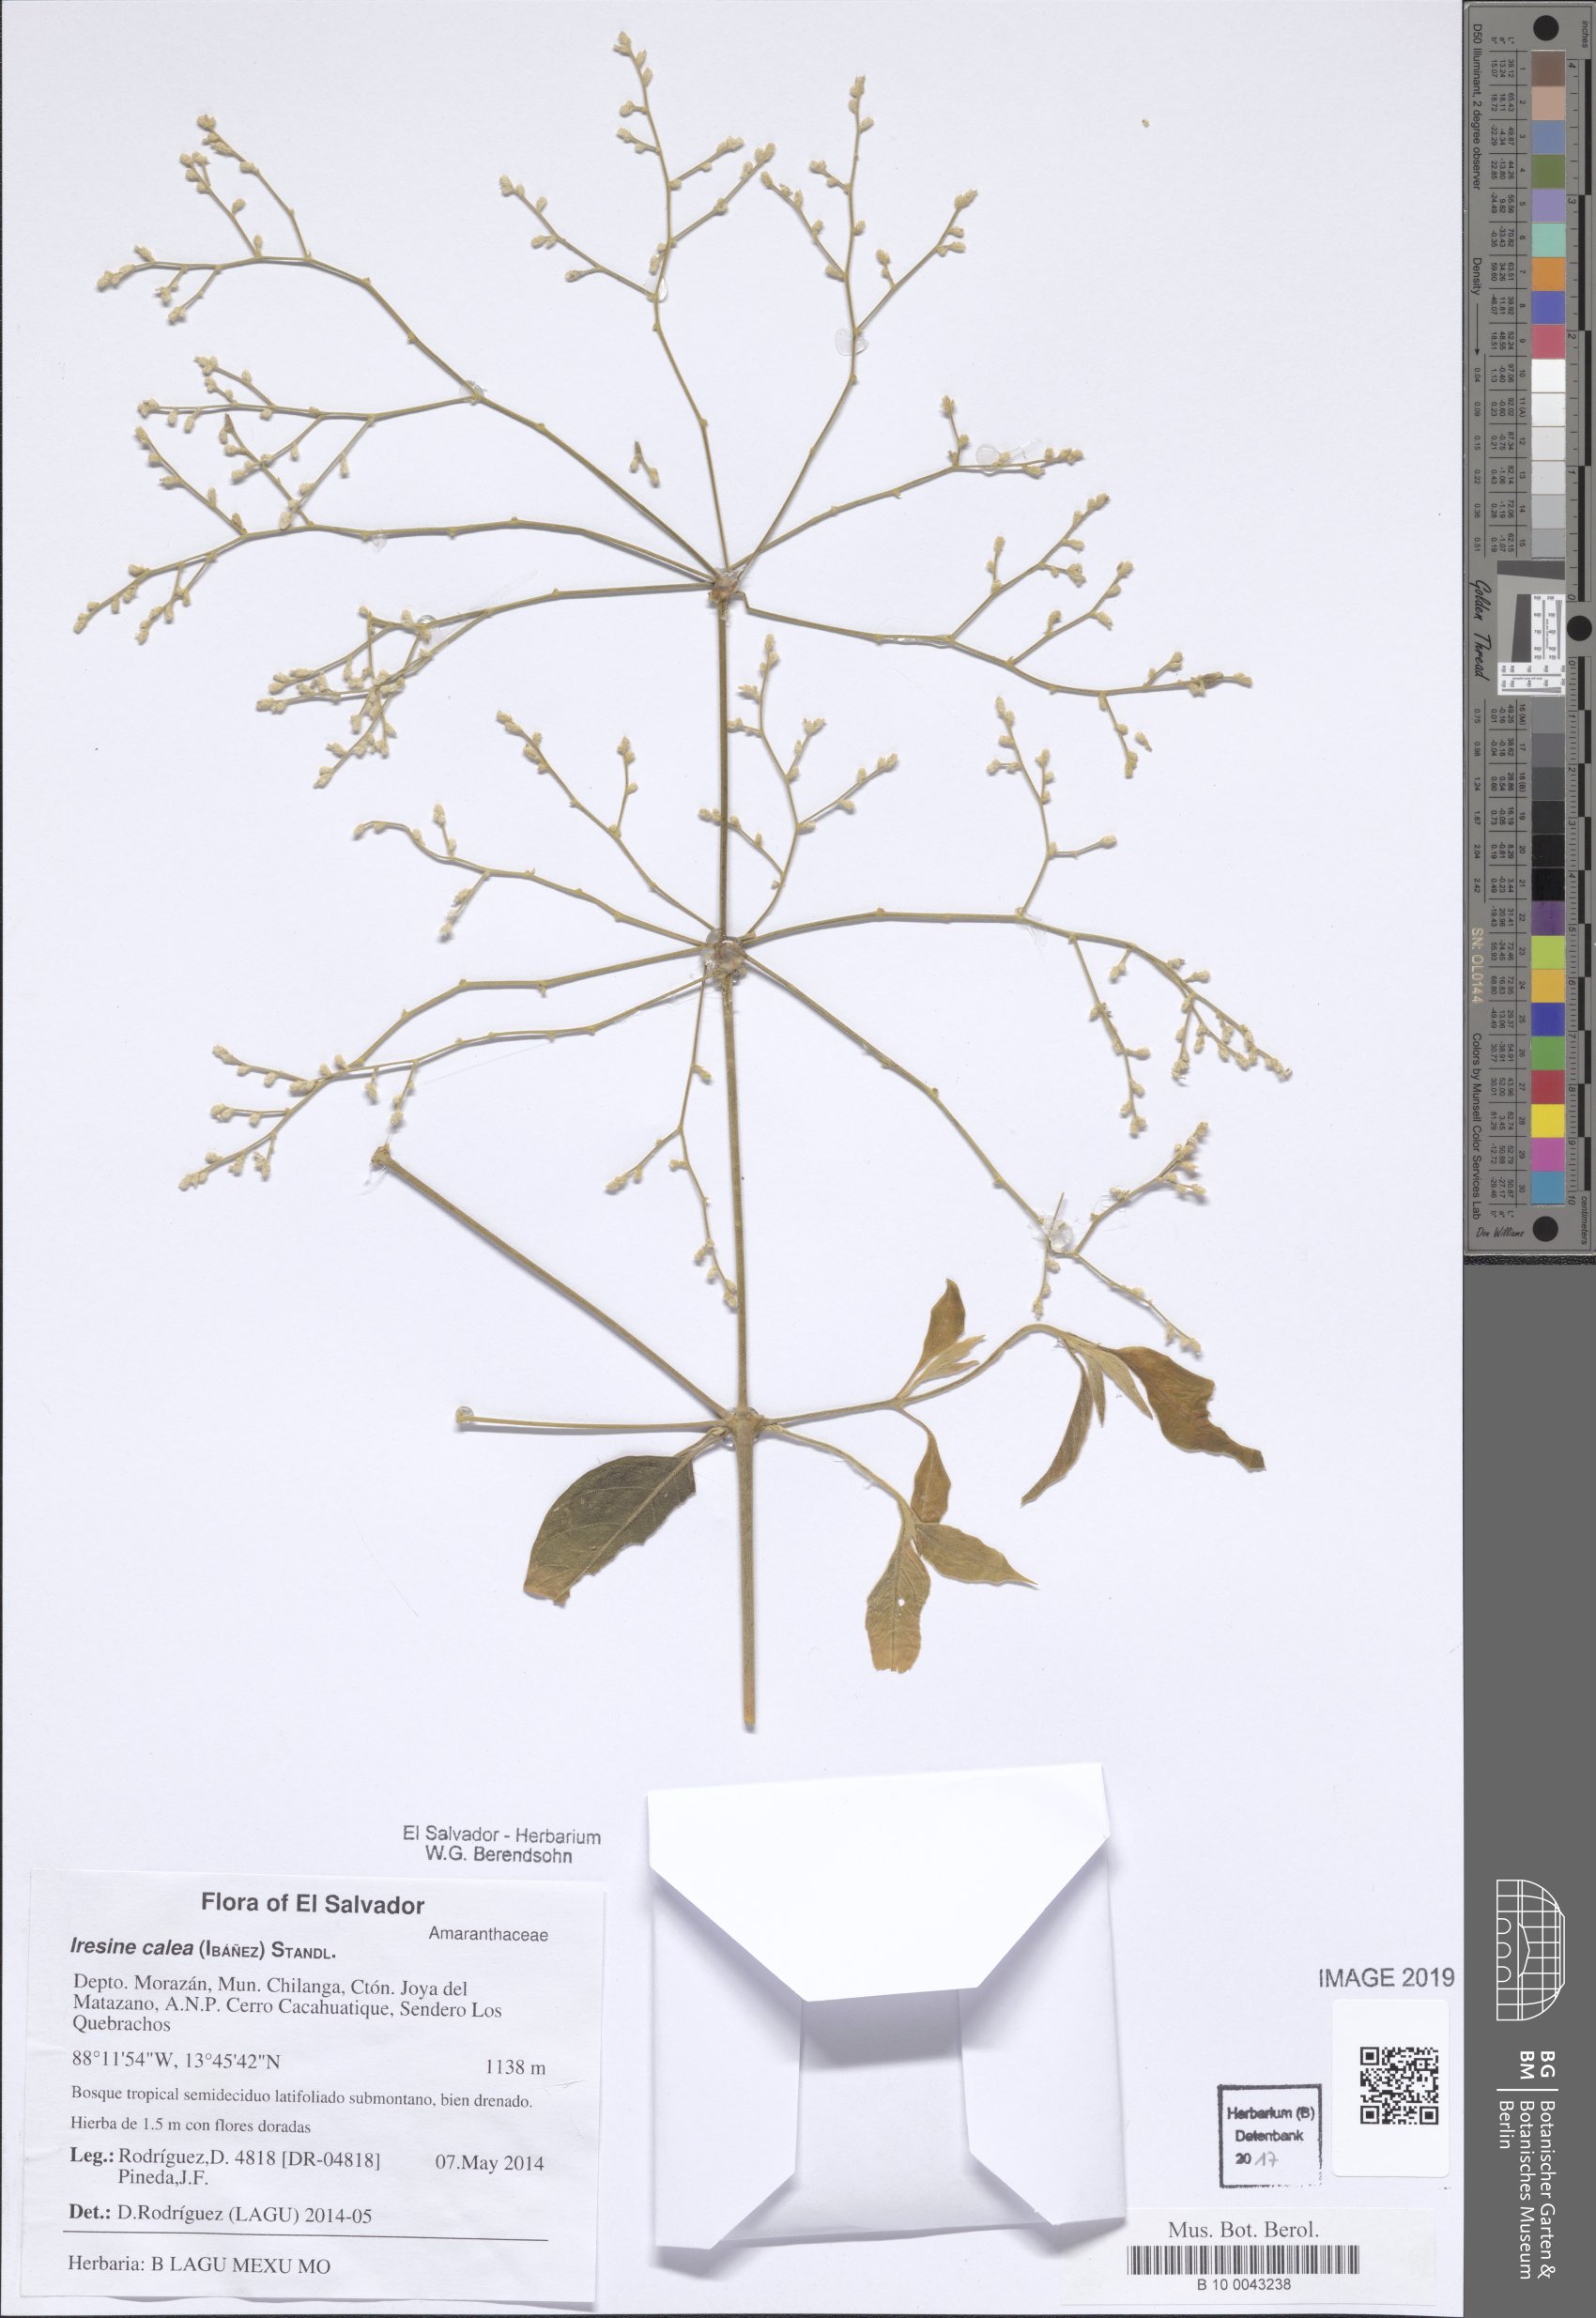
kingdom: Plantae
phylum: Tracheophyta
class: Magnoliopsida
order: Caryophyllales
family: Amaranthaceae
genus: Iresine
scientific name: Iresine latifolia
